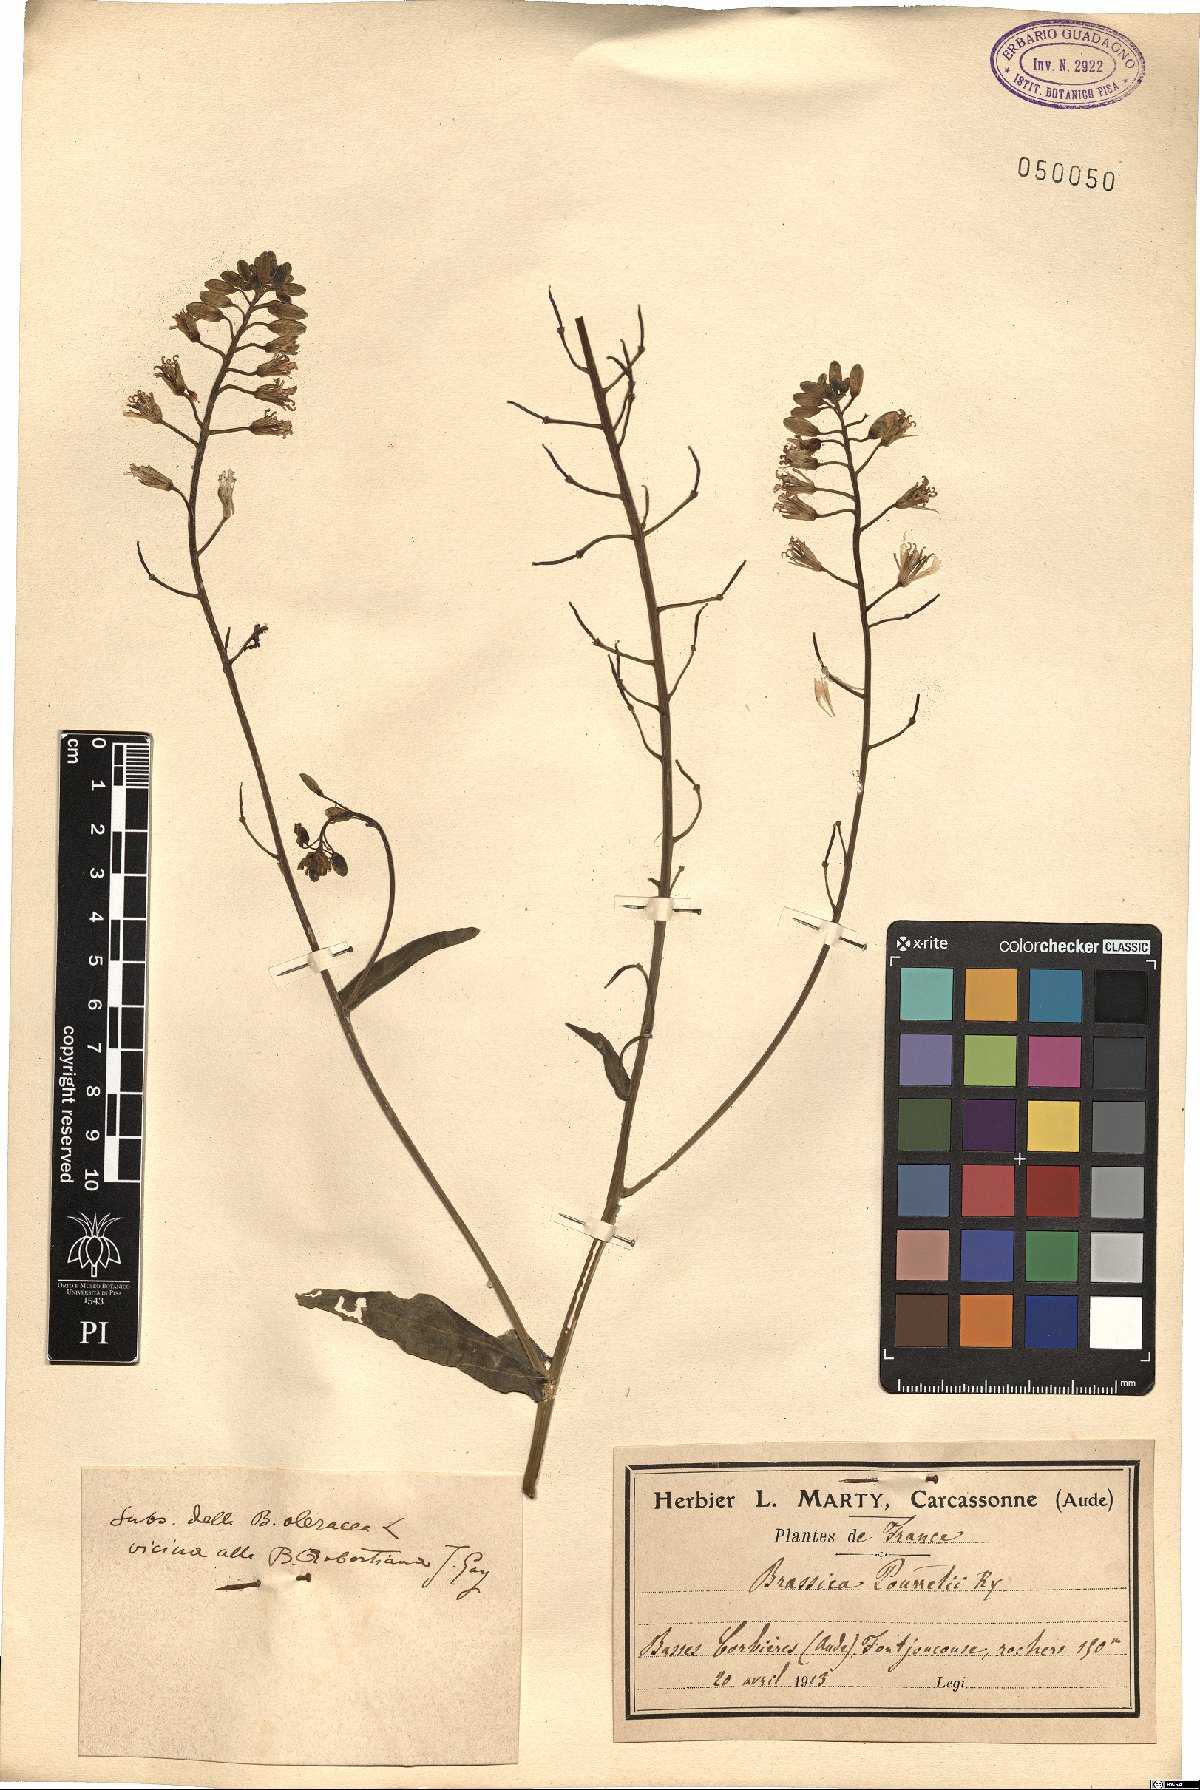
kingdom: Plantae
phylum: Tracheophyta
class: Magnoliopsida
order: Brassicales
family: Brassicaceae
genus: Brassica
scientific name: Brassica montana
